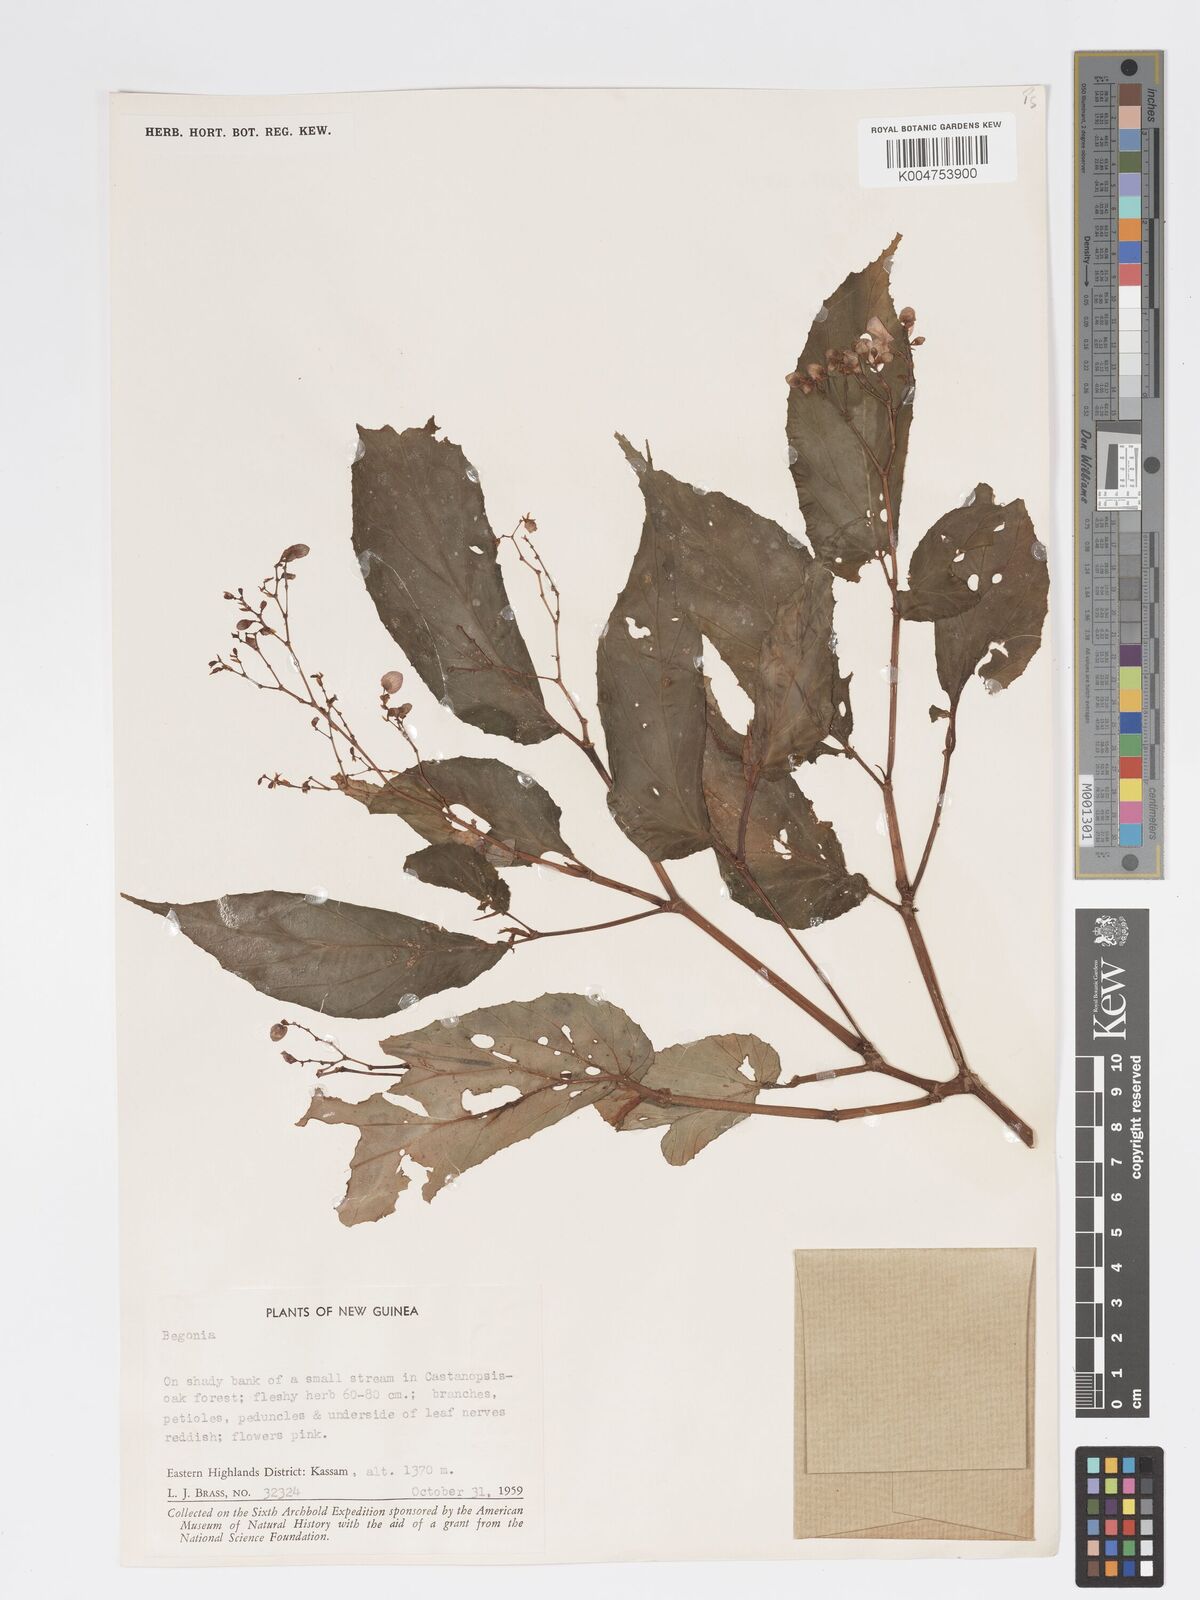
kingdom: Plantae
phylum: Tracheophyta
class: Magnoliopsida
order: Cucurbitales
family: Begoniaceae
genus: Begonia
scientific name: Begonia
